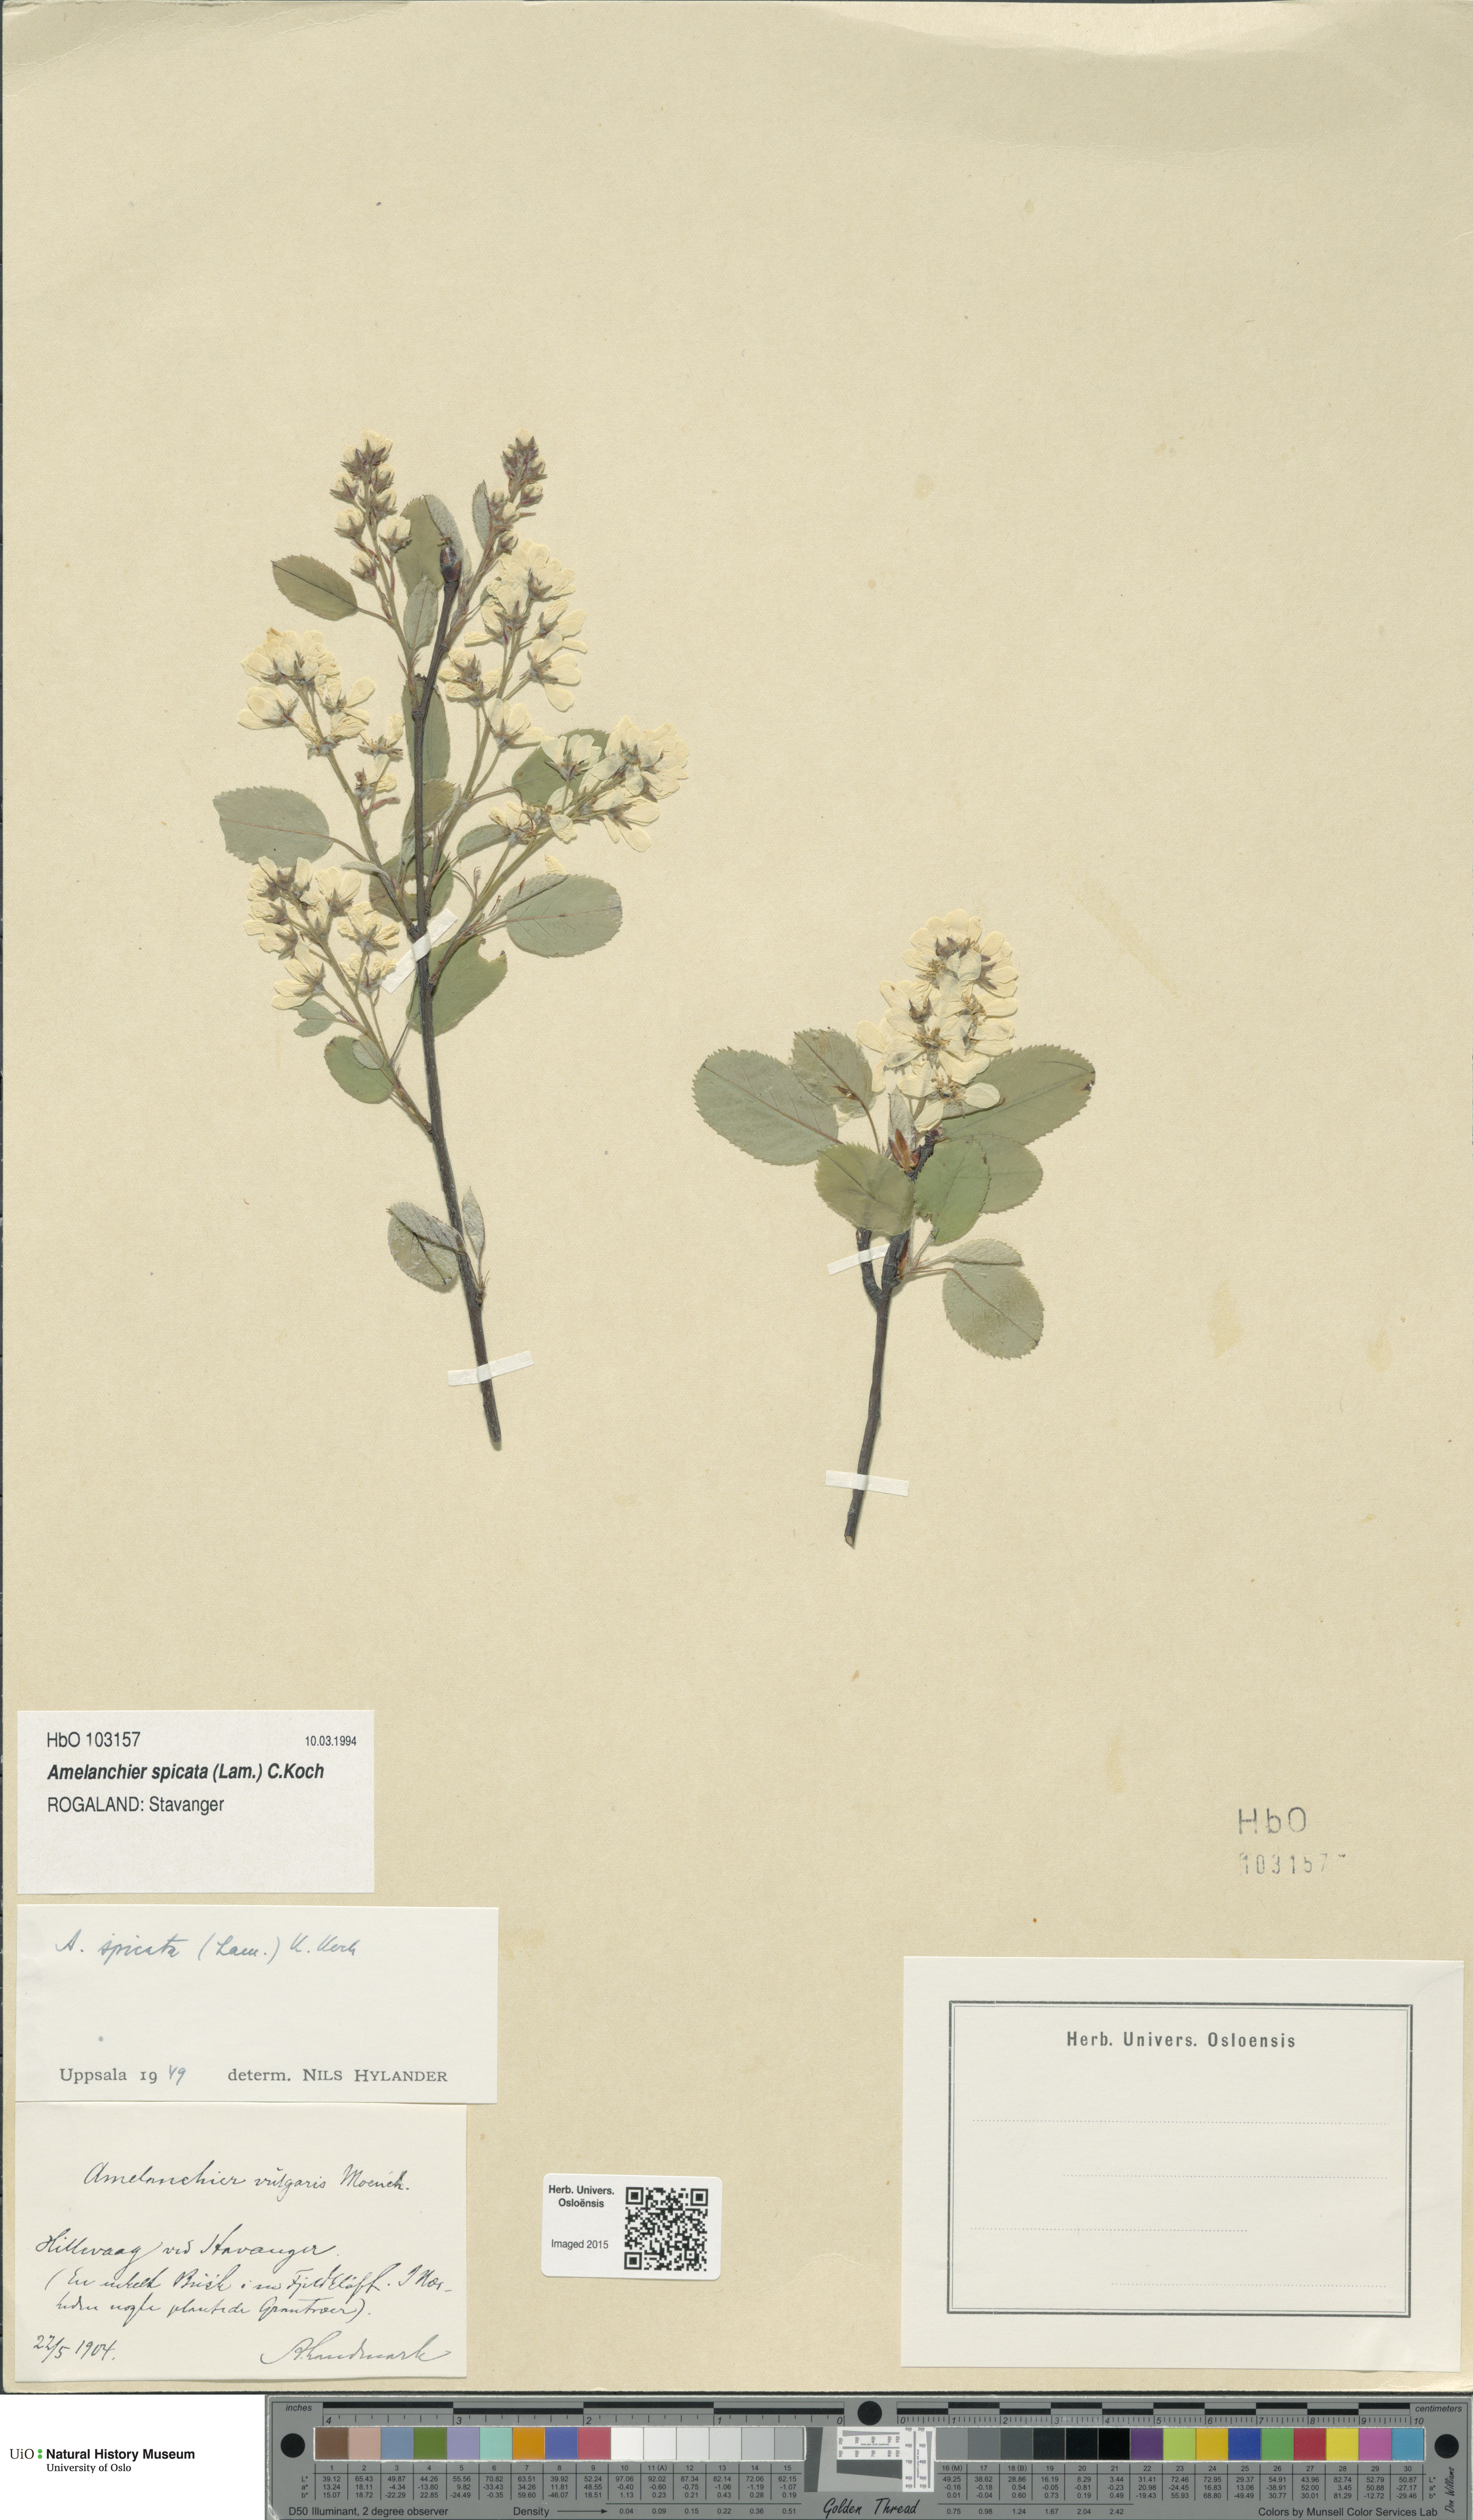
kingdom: Plantae
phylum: Tracheophyta
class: Magnoliopsida
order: Rosales
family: Rosaceae
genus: Amelanchier
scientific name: Amelanchier humilis
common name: Low juneberry
